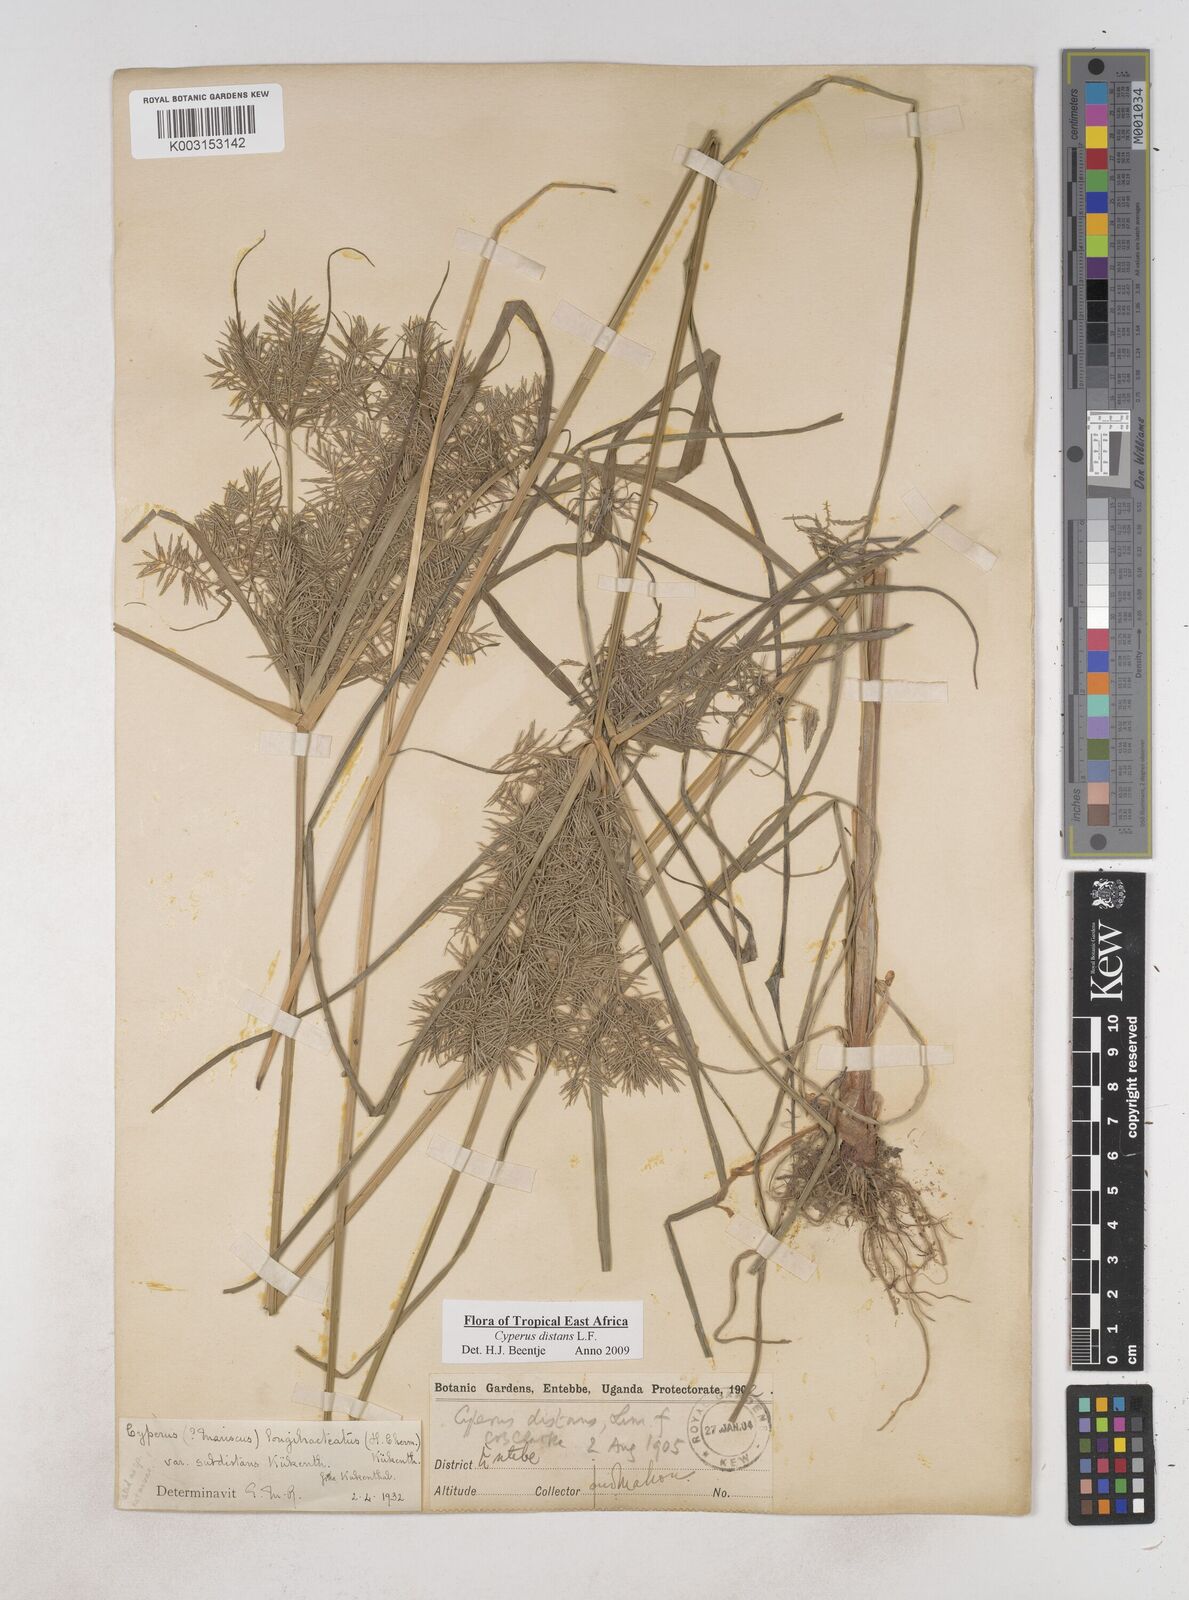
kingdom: Plantae
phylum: Tracheophyta
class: Liliopsida
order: Poales
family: Cyperaceae
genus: Cyperus
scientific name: Cyperus distans
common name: Slender cyperus
